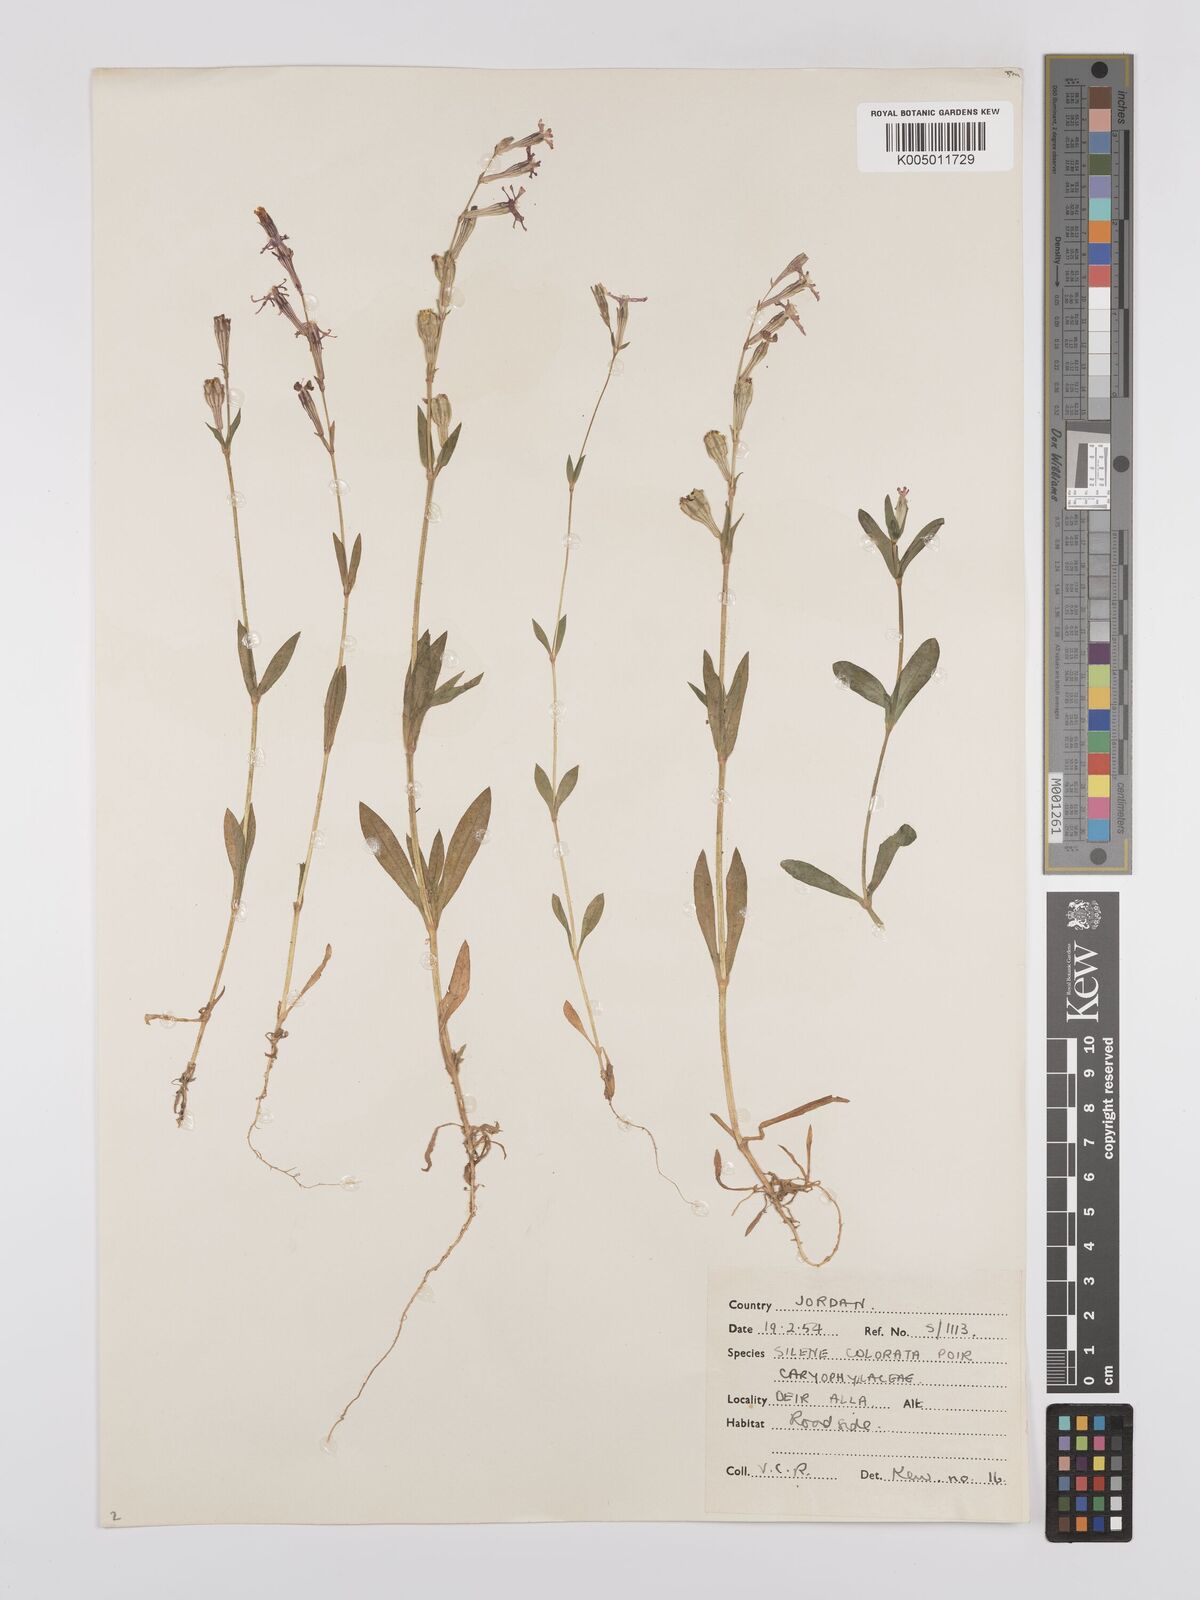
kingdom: Plantae
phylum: Tracheophyta
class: Magnoliopsida
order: Caryophyllales
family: Caryophyllaceae
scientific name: Caryophyllaceae
